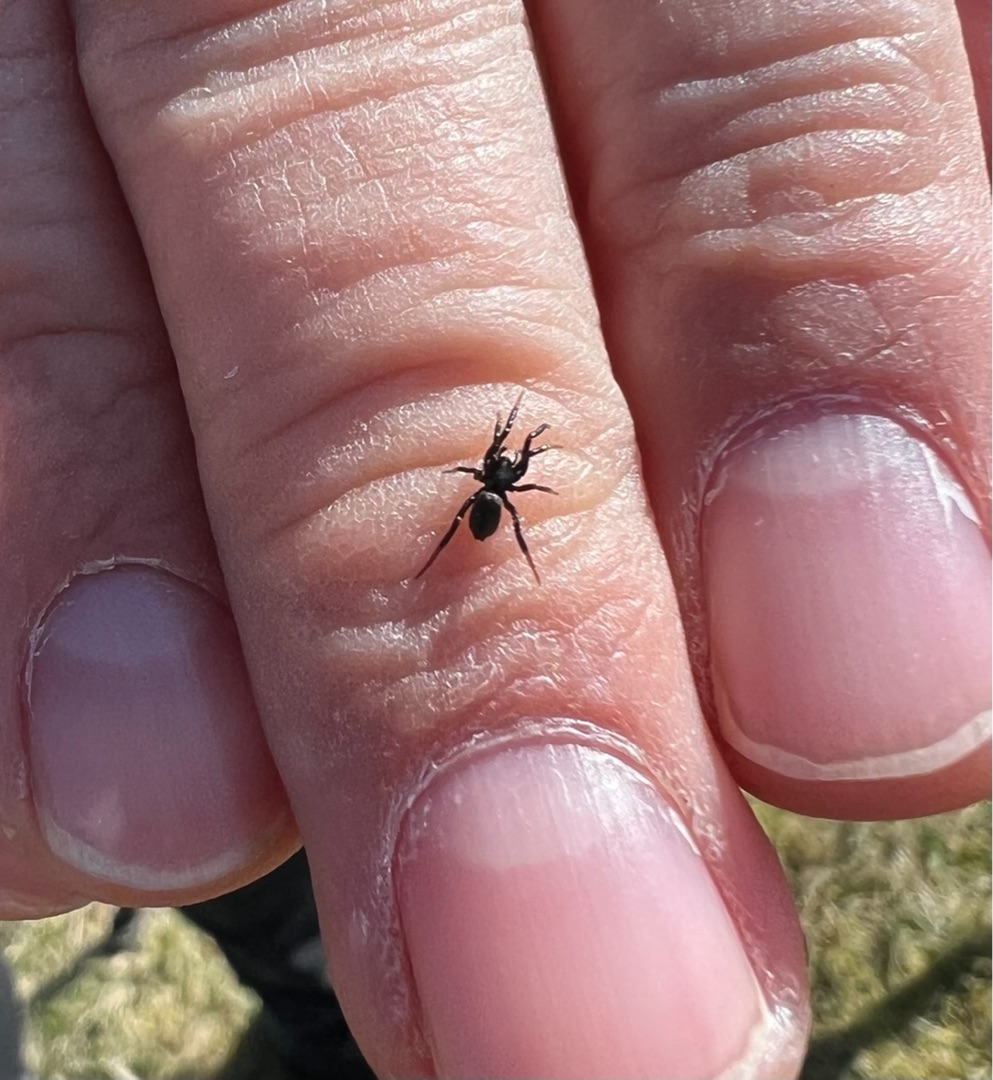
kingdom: Animalia
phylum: Arthropoda
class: Arachnida
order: Araneae
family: Gnaphosidae
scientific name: Gnaphosidae
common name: Museedderkopper
